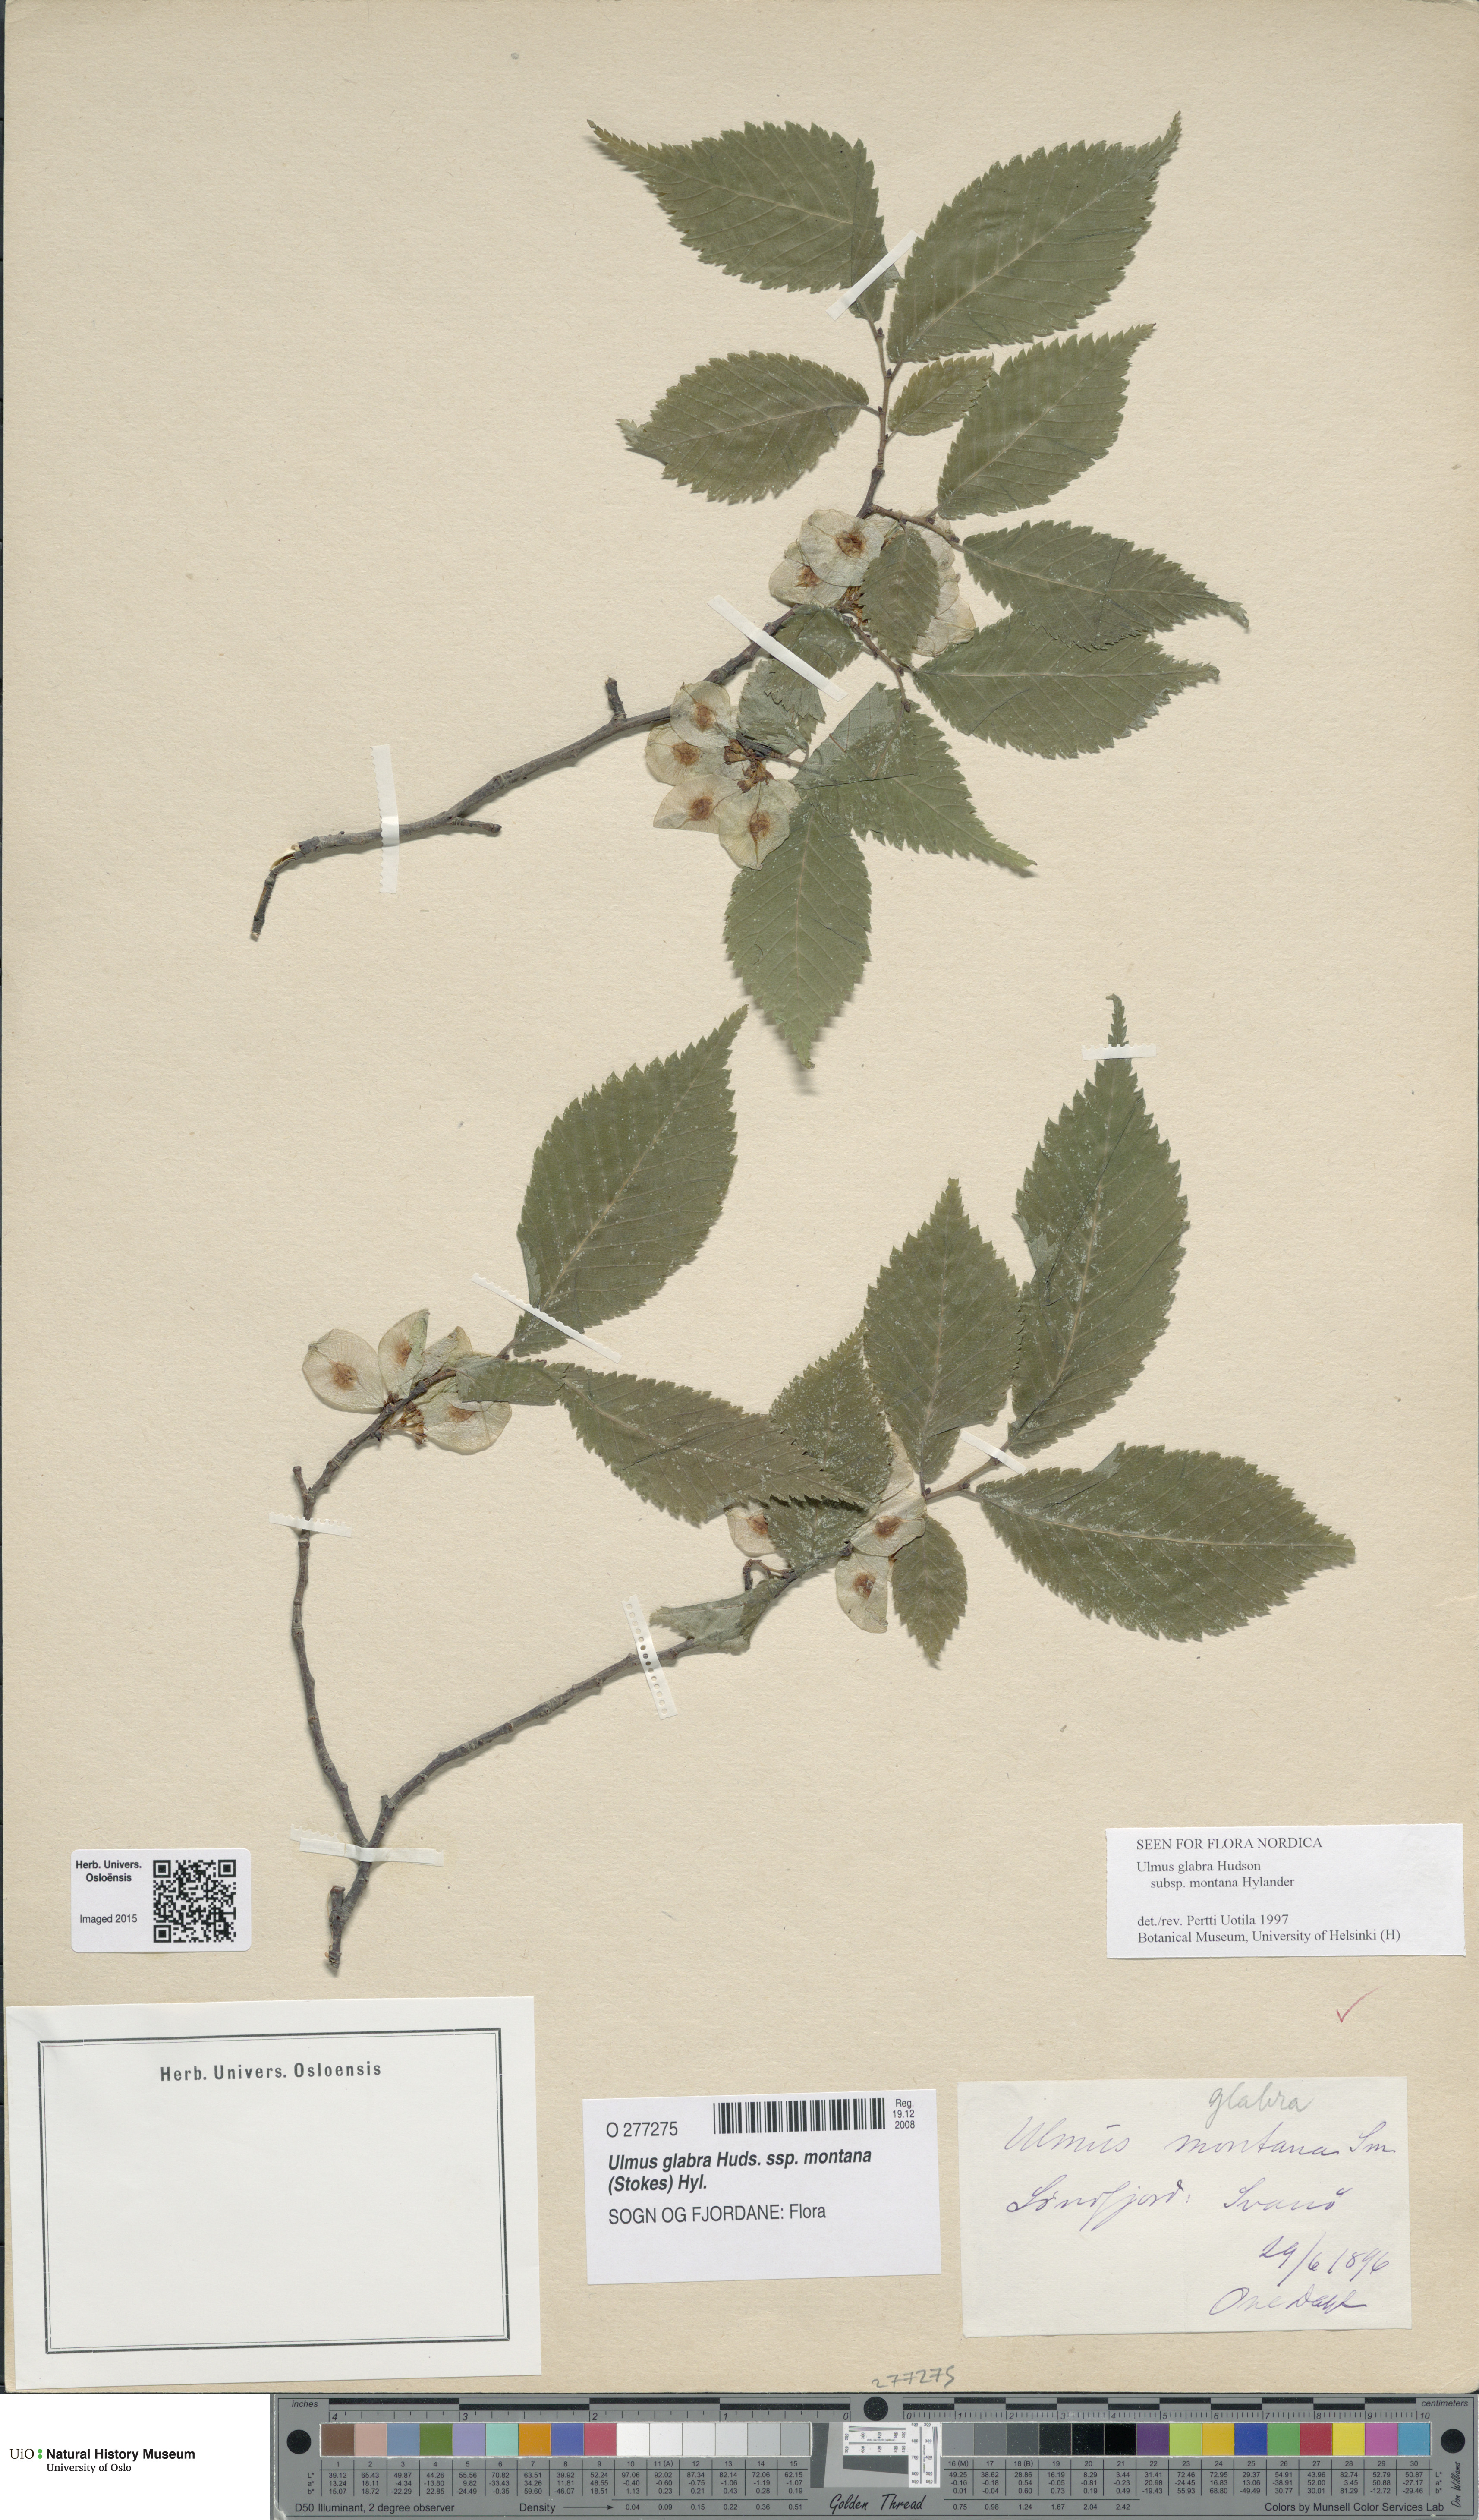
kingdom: Plantae
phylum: Tracheophyta
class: Magnoliopsida
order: Rosales
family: Ulmaceae
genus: Ulmus
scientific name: Ulmus glabra
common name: Wych elm
